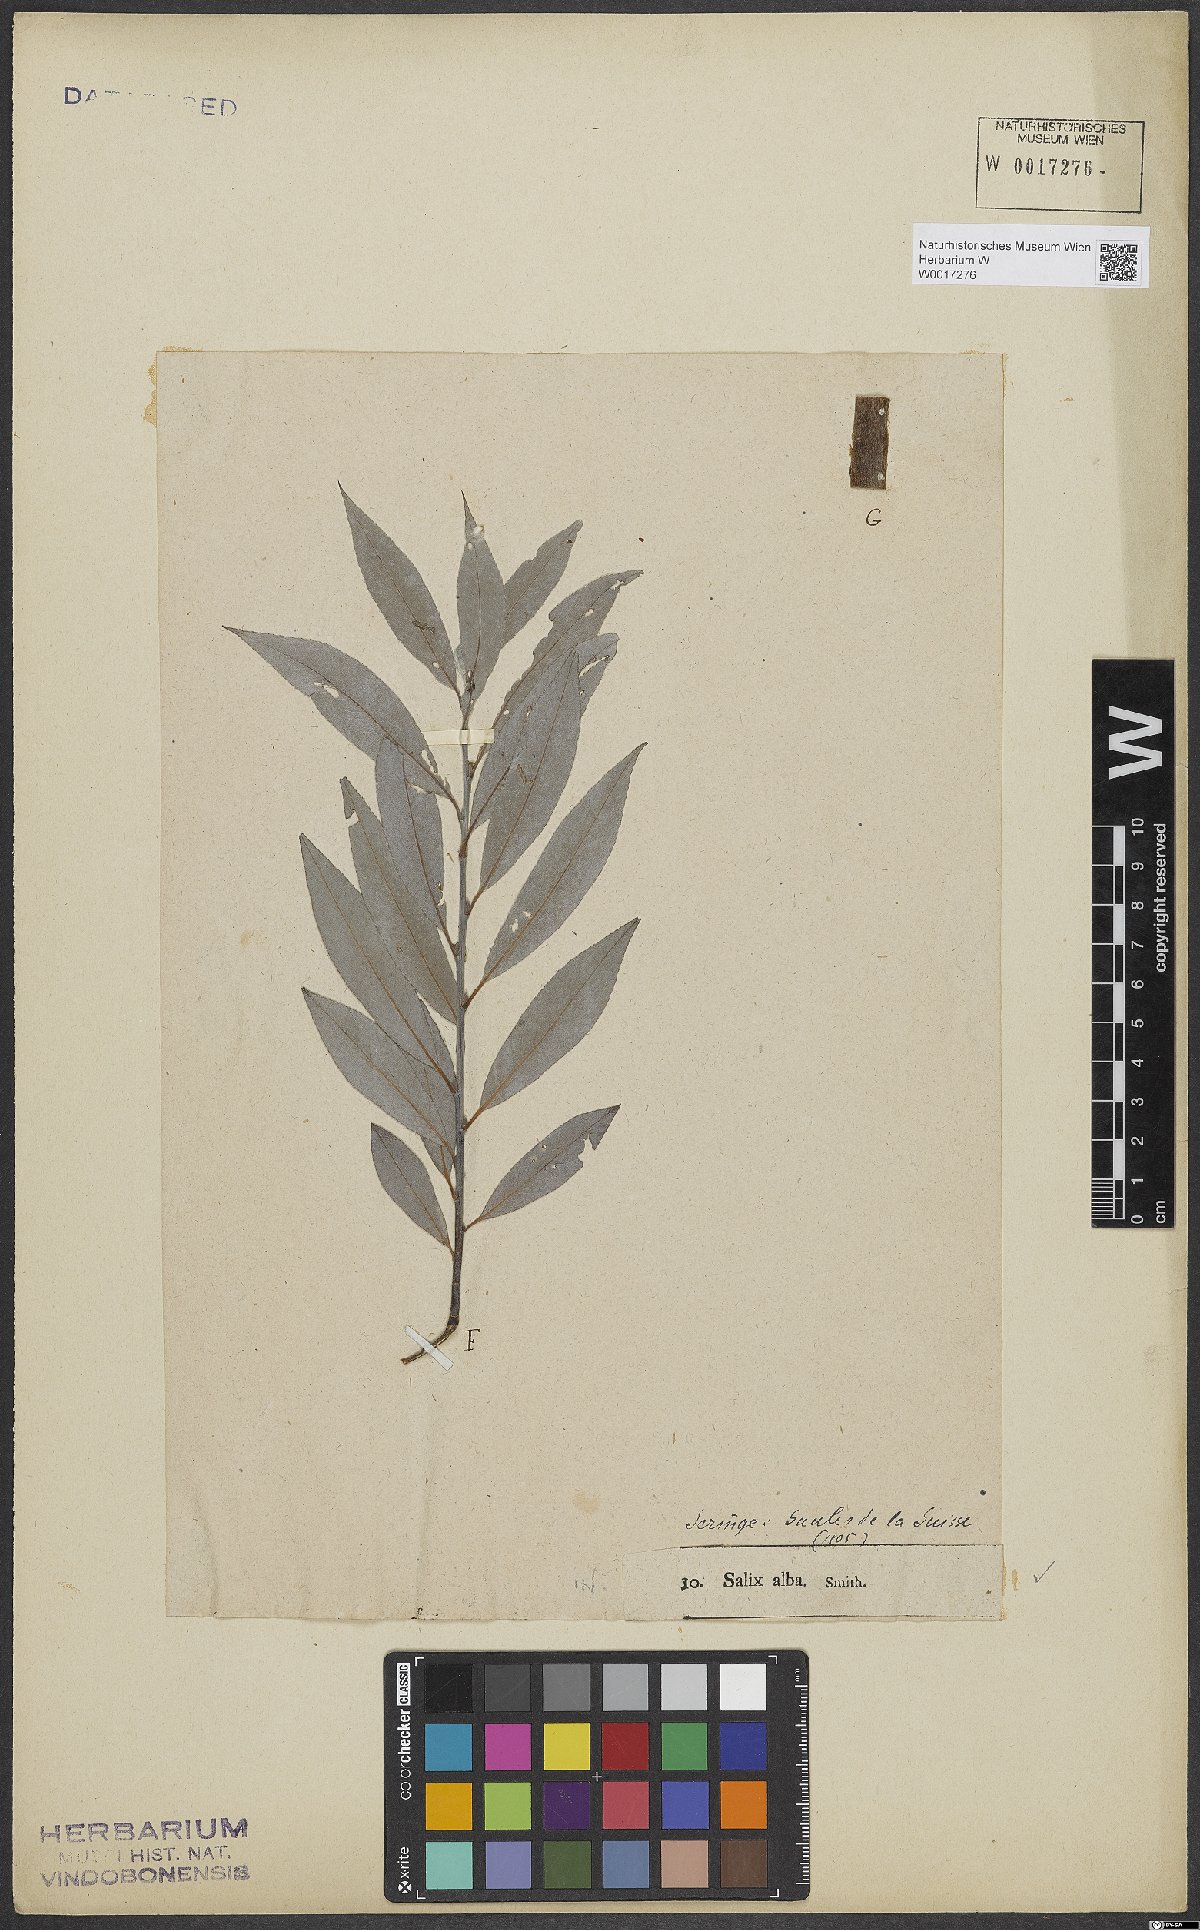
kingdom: Plantae
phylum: Tracheophyta
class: Magnoliopsida
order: Malpighiales
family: Salicaceae
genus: Salix
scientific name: Salix alba
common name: White willow
